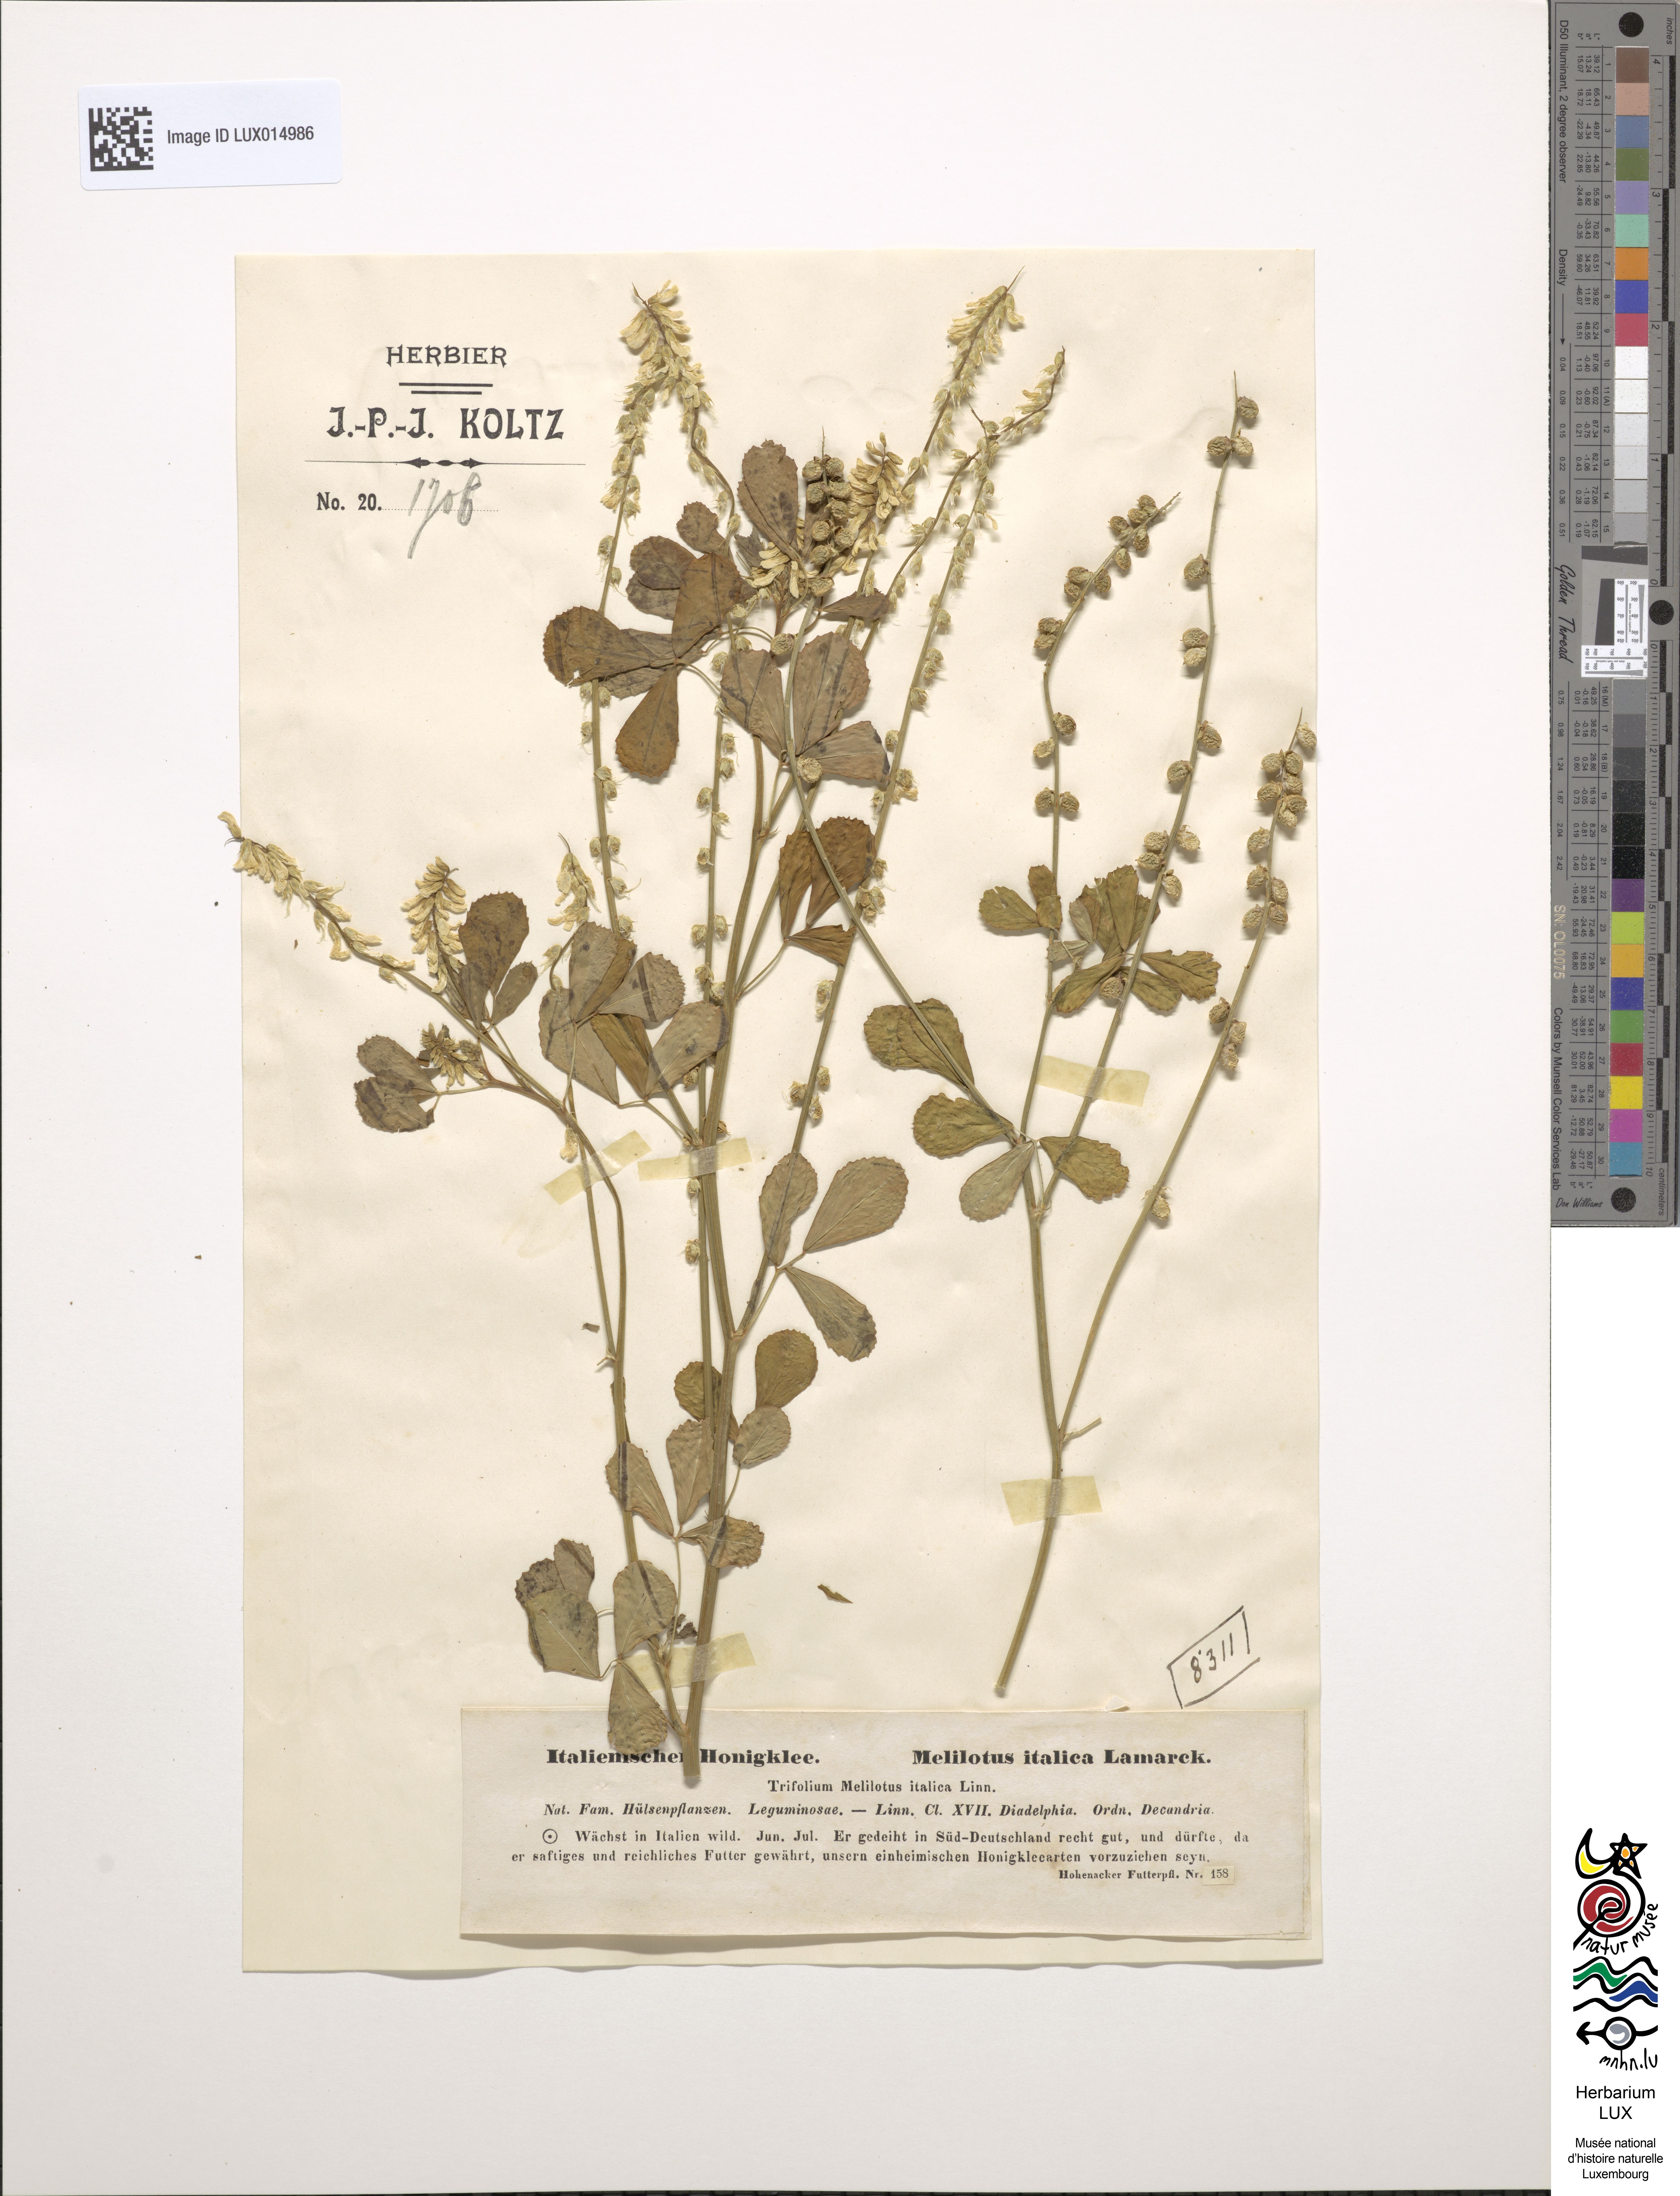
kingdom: Plantae
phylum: Tracheophyta
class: Magnoliopsida
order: Fabales
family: Fabaceae
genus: Melilotus
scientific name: Melilotus italicus
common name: Italian melilot
